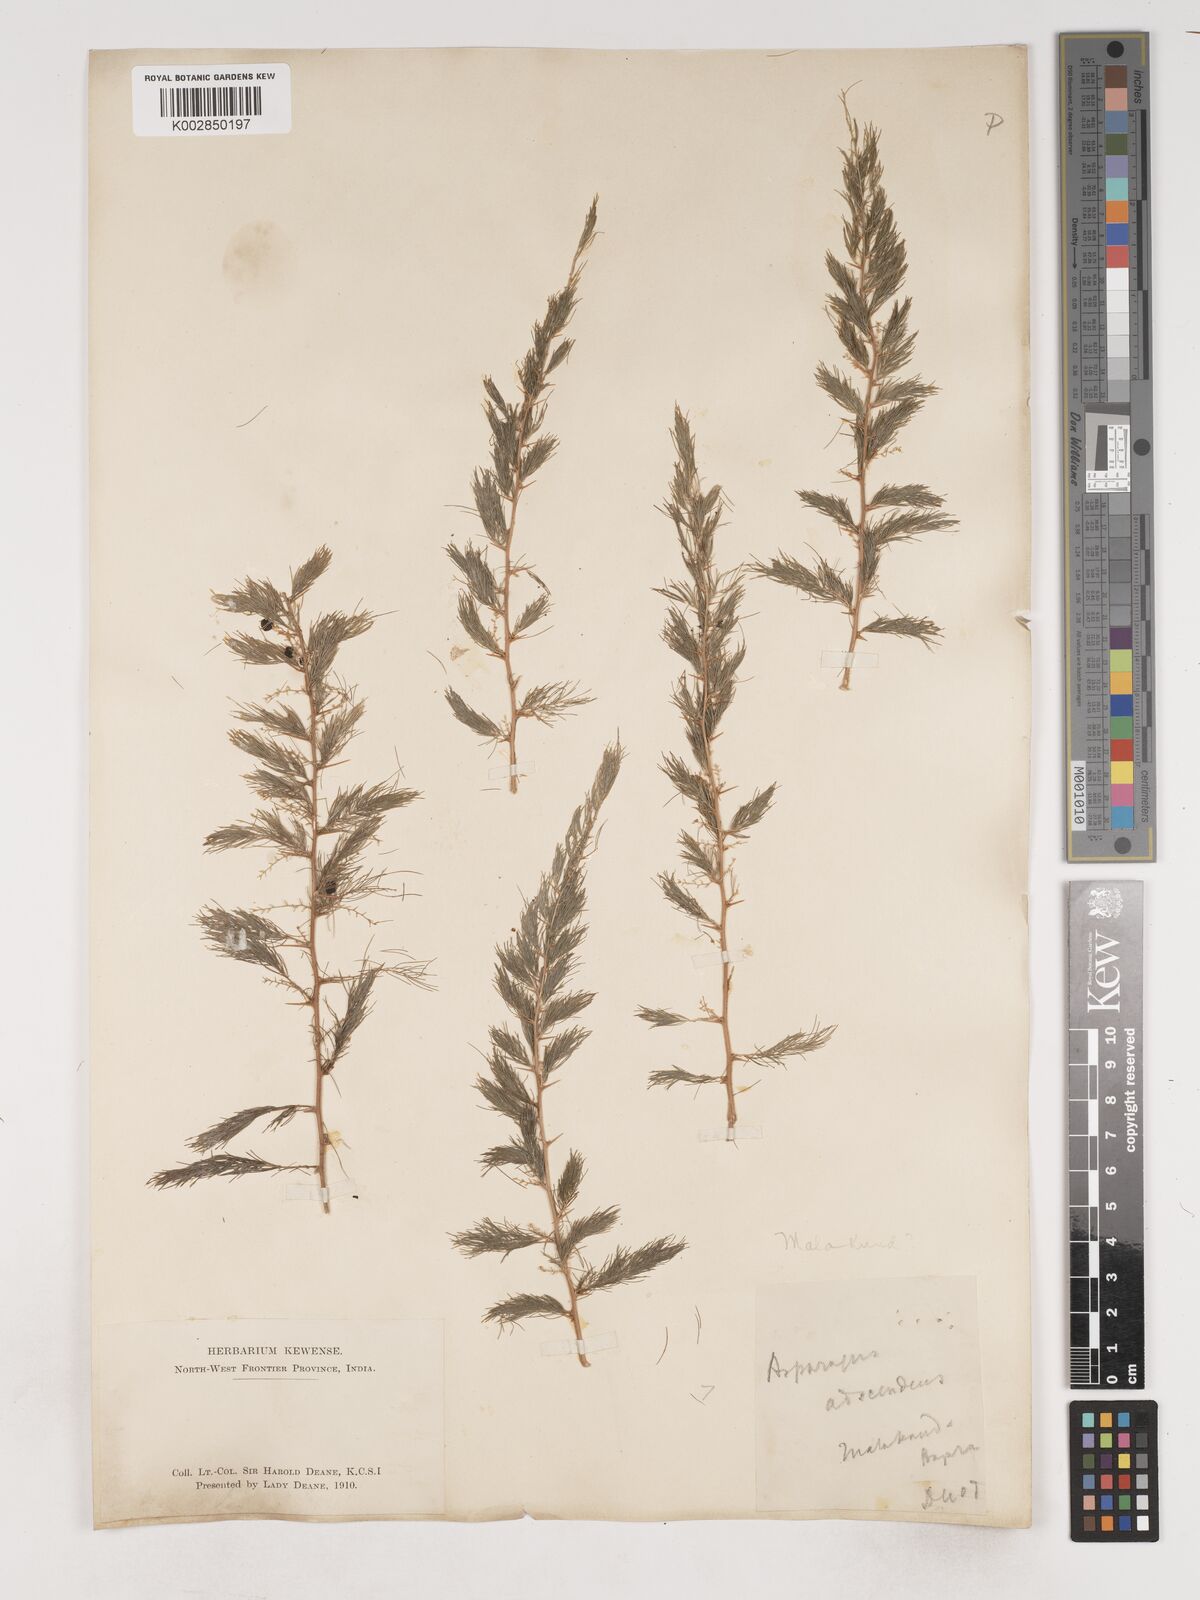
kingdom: Plantae
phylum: Tracheophyta
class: Liliopsida
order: Asparagales
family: Asparagaceae
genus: Asparagus
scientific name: Asparagus adscendens
